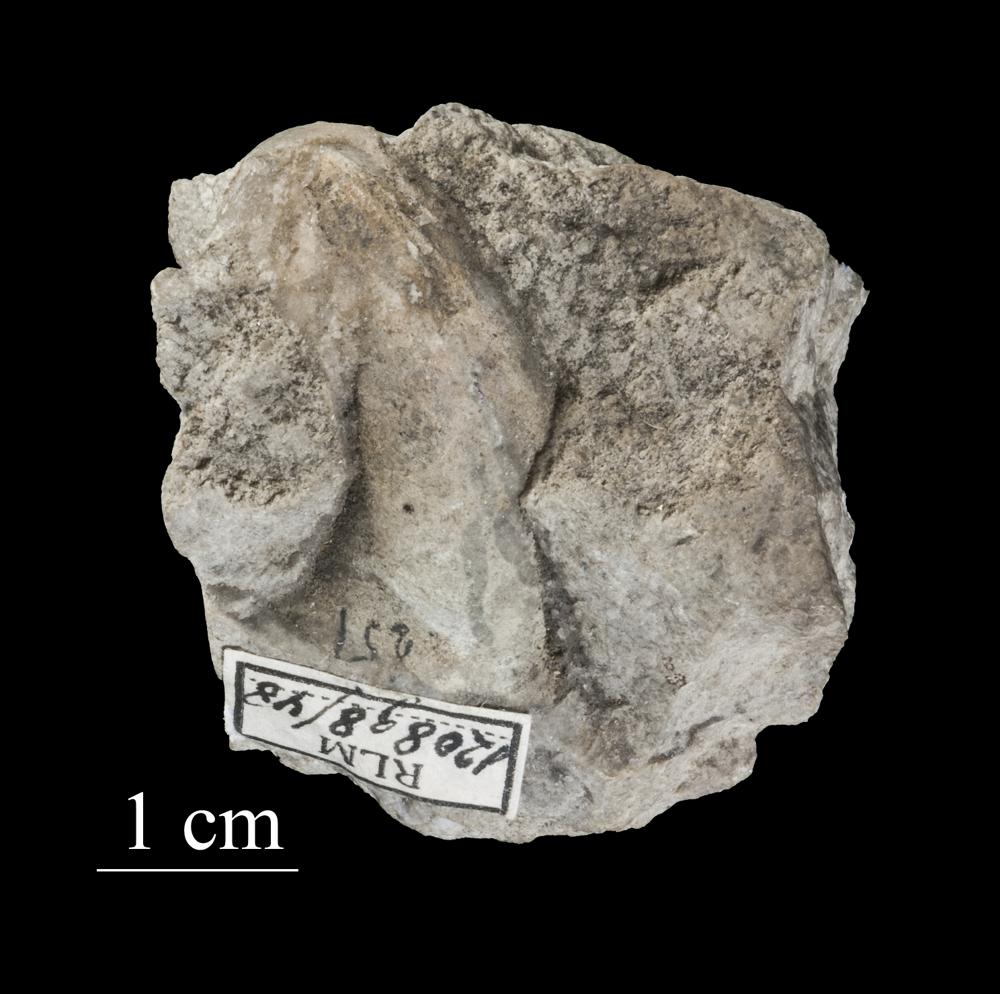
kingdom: Animalia
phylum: Mollusca
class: Gastropoda
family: Bucaniidae
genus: Salpingostoma
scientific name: Salpingostoma Bellerophon megalostoma
